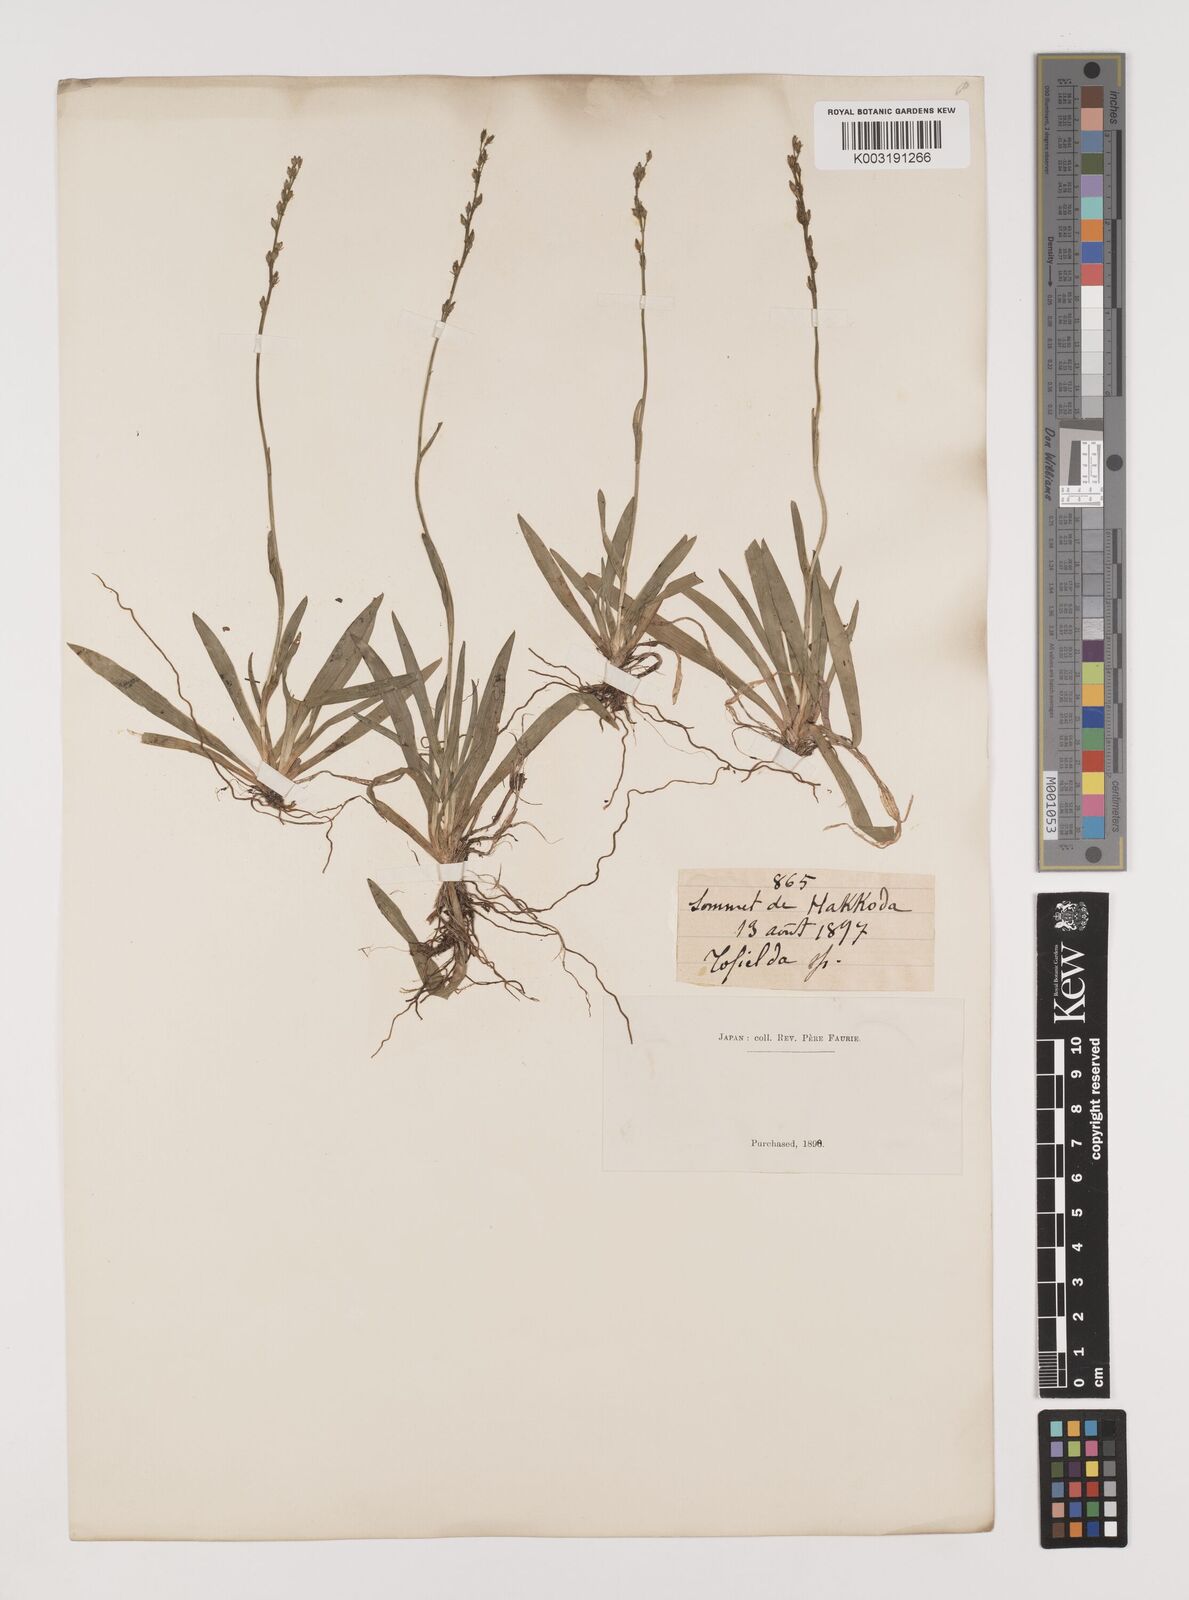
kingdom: Plantae
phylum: Tracheophyta
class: Liliopsida
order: Alismatales
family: Tofieldiaceae
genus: Tofieldia
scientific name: Tofieldia coccinea
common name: Northern false asphodel
